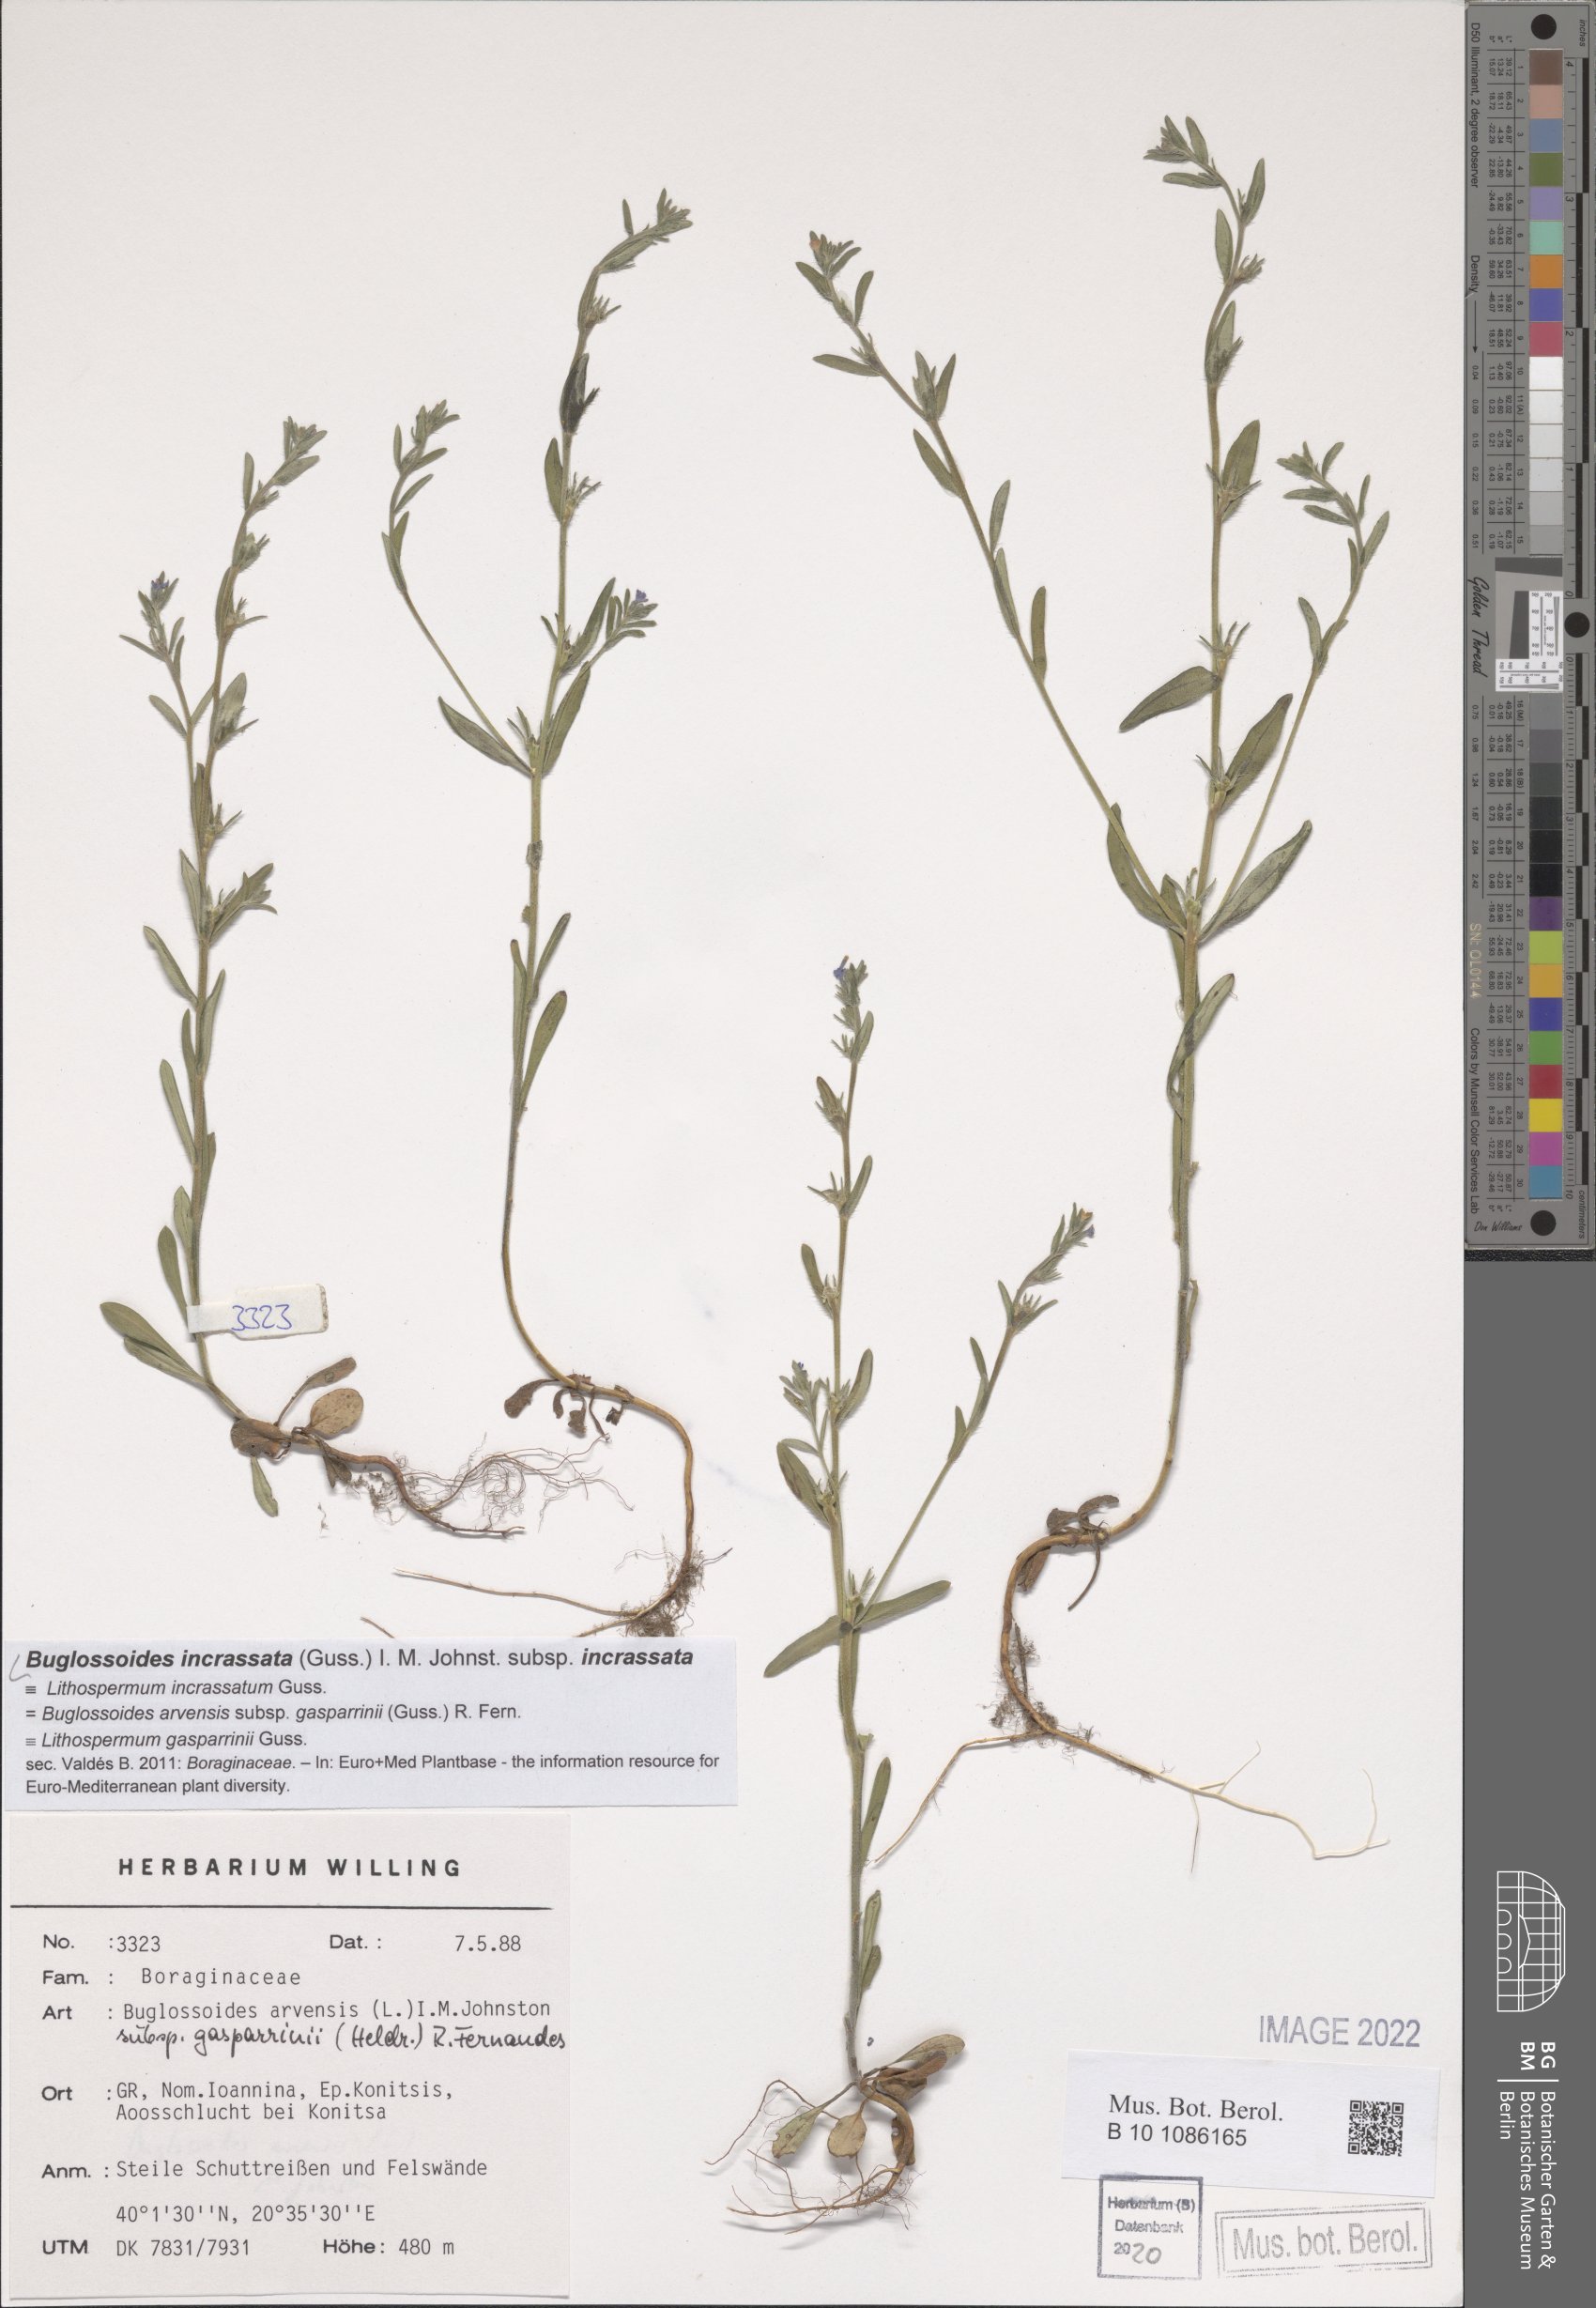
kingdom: Plantae
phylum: Tracheophyta
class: Magnoliopsida
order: Boraginales
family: Boraginaceae
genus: Buglossoides
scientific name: Buglossoides incrassata
